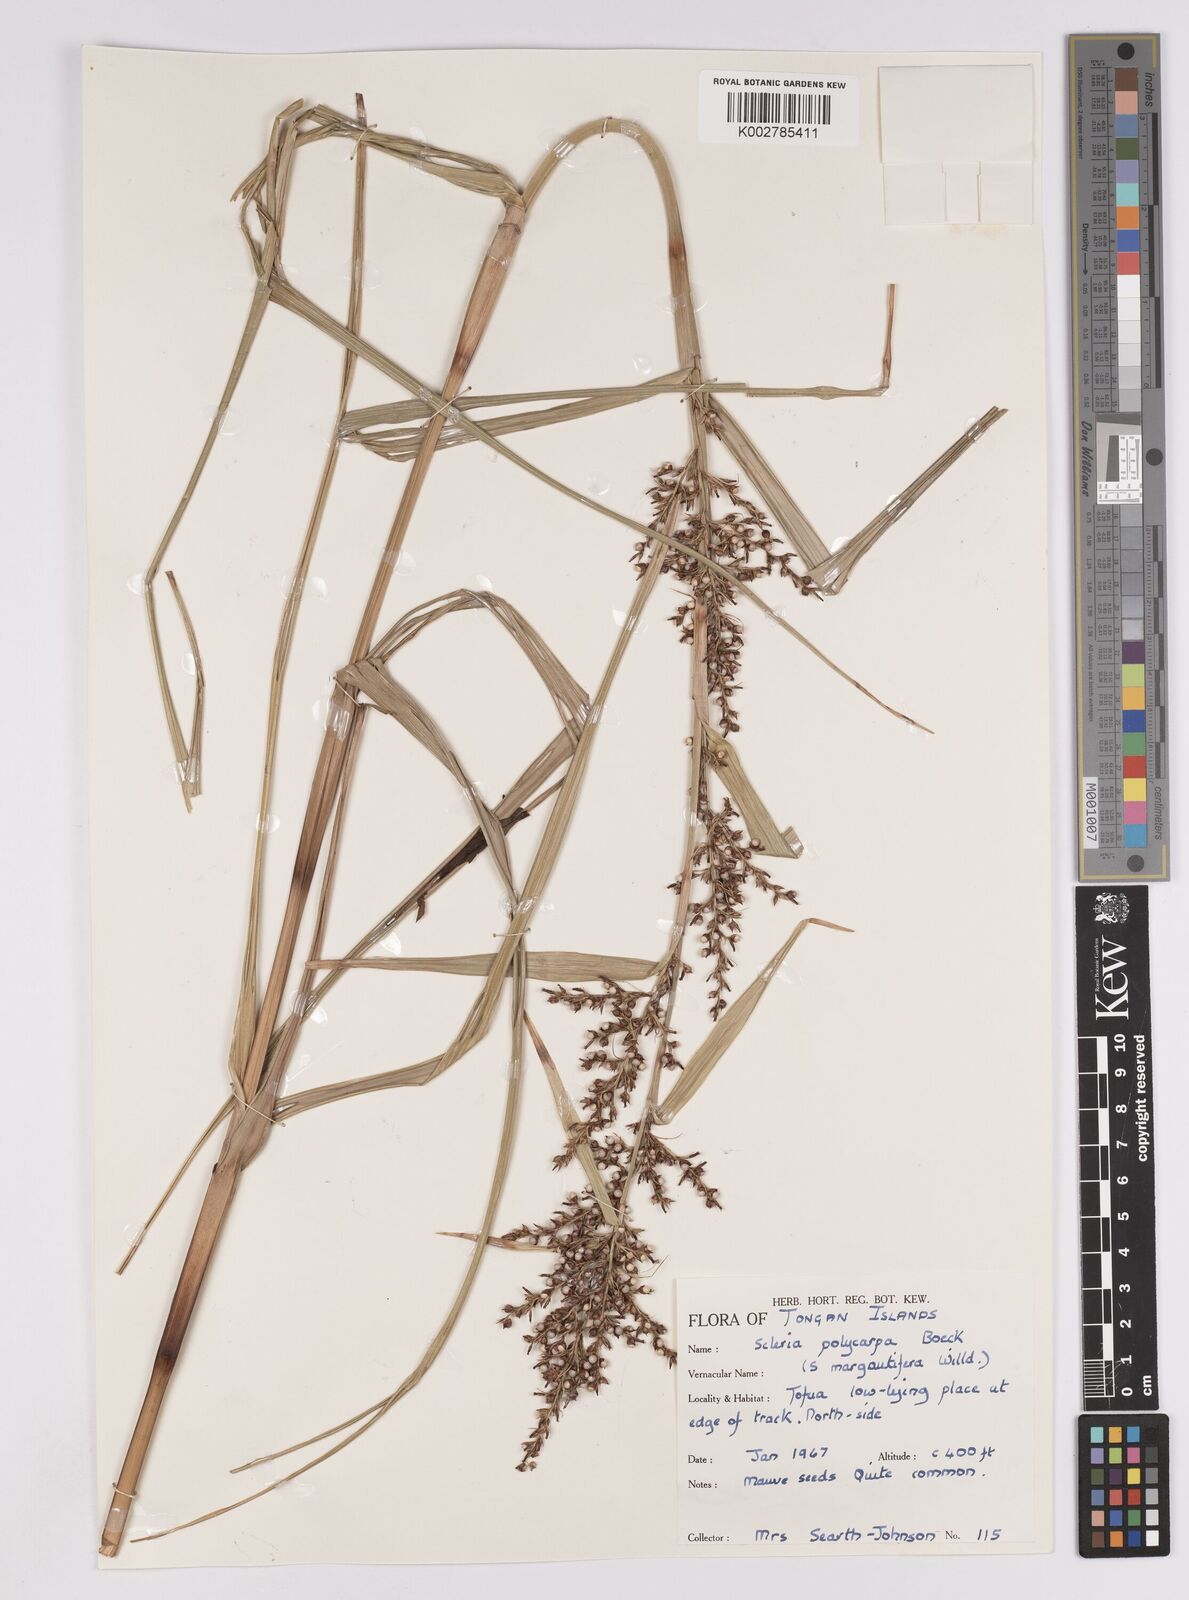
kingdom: Plantae
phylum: Tracheophyta
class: Liliopsida
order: Poales
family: Cyperaceae
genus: Scleria
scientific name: Scleria polycarpa
